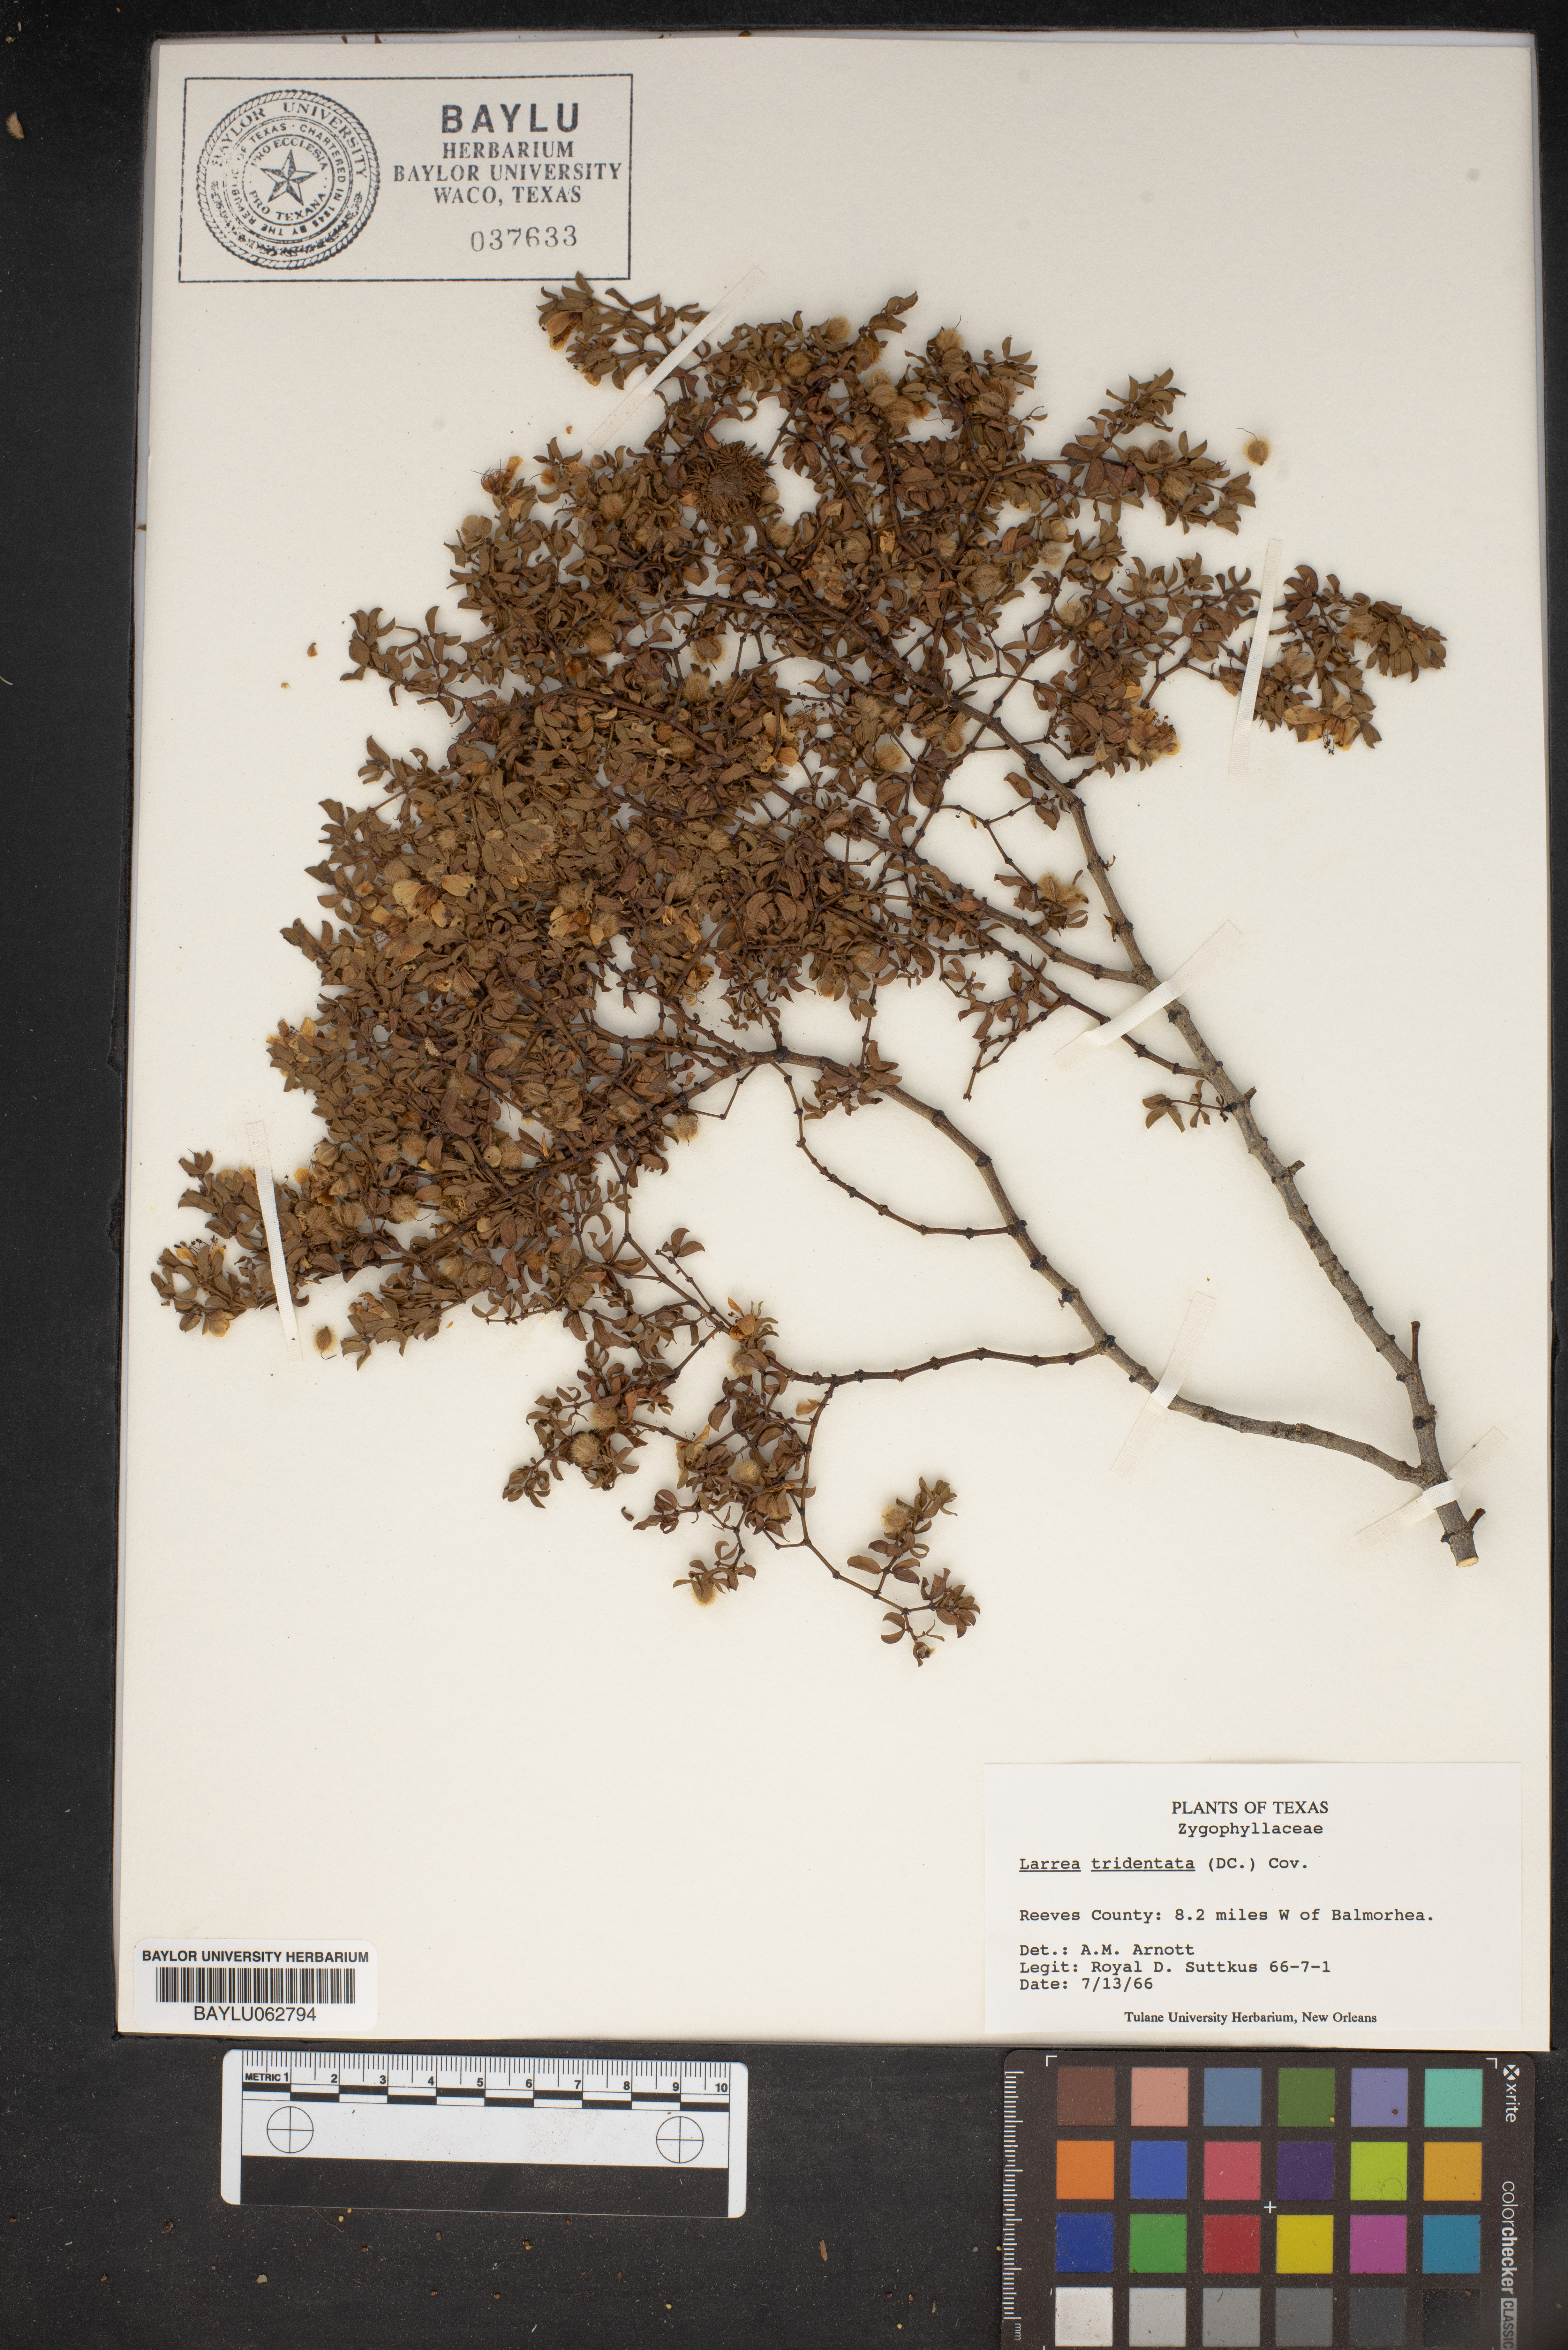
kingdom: Plantae
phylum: Tracheophyta
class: Magnoliopsida
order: Zygophyllales
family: Zygophyllaceae
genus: Larrea
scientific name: Larrea tridentata
